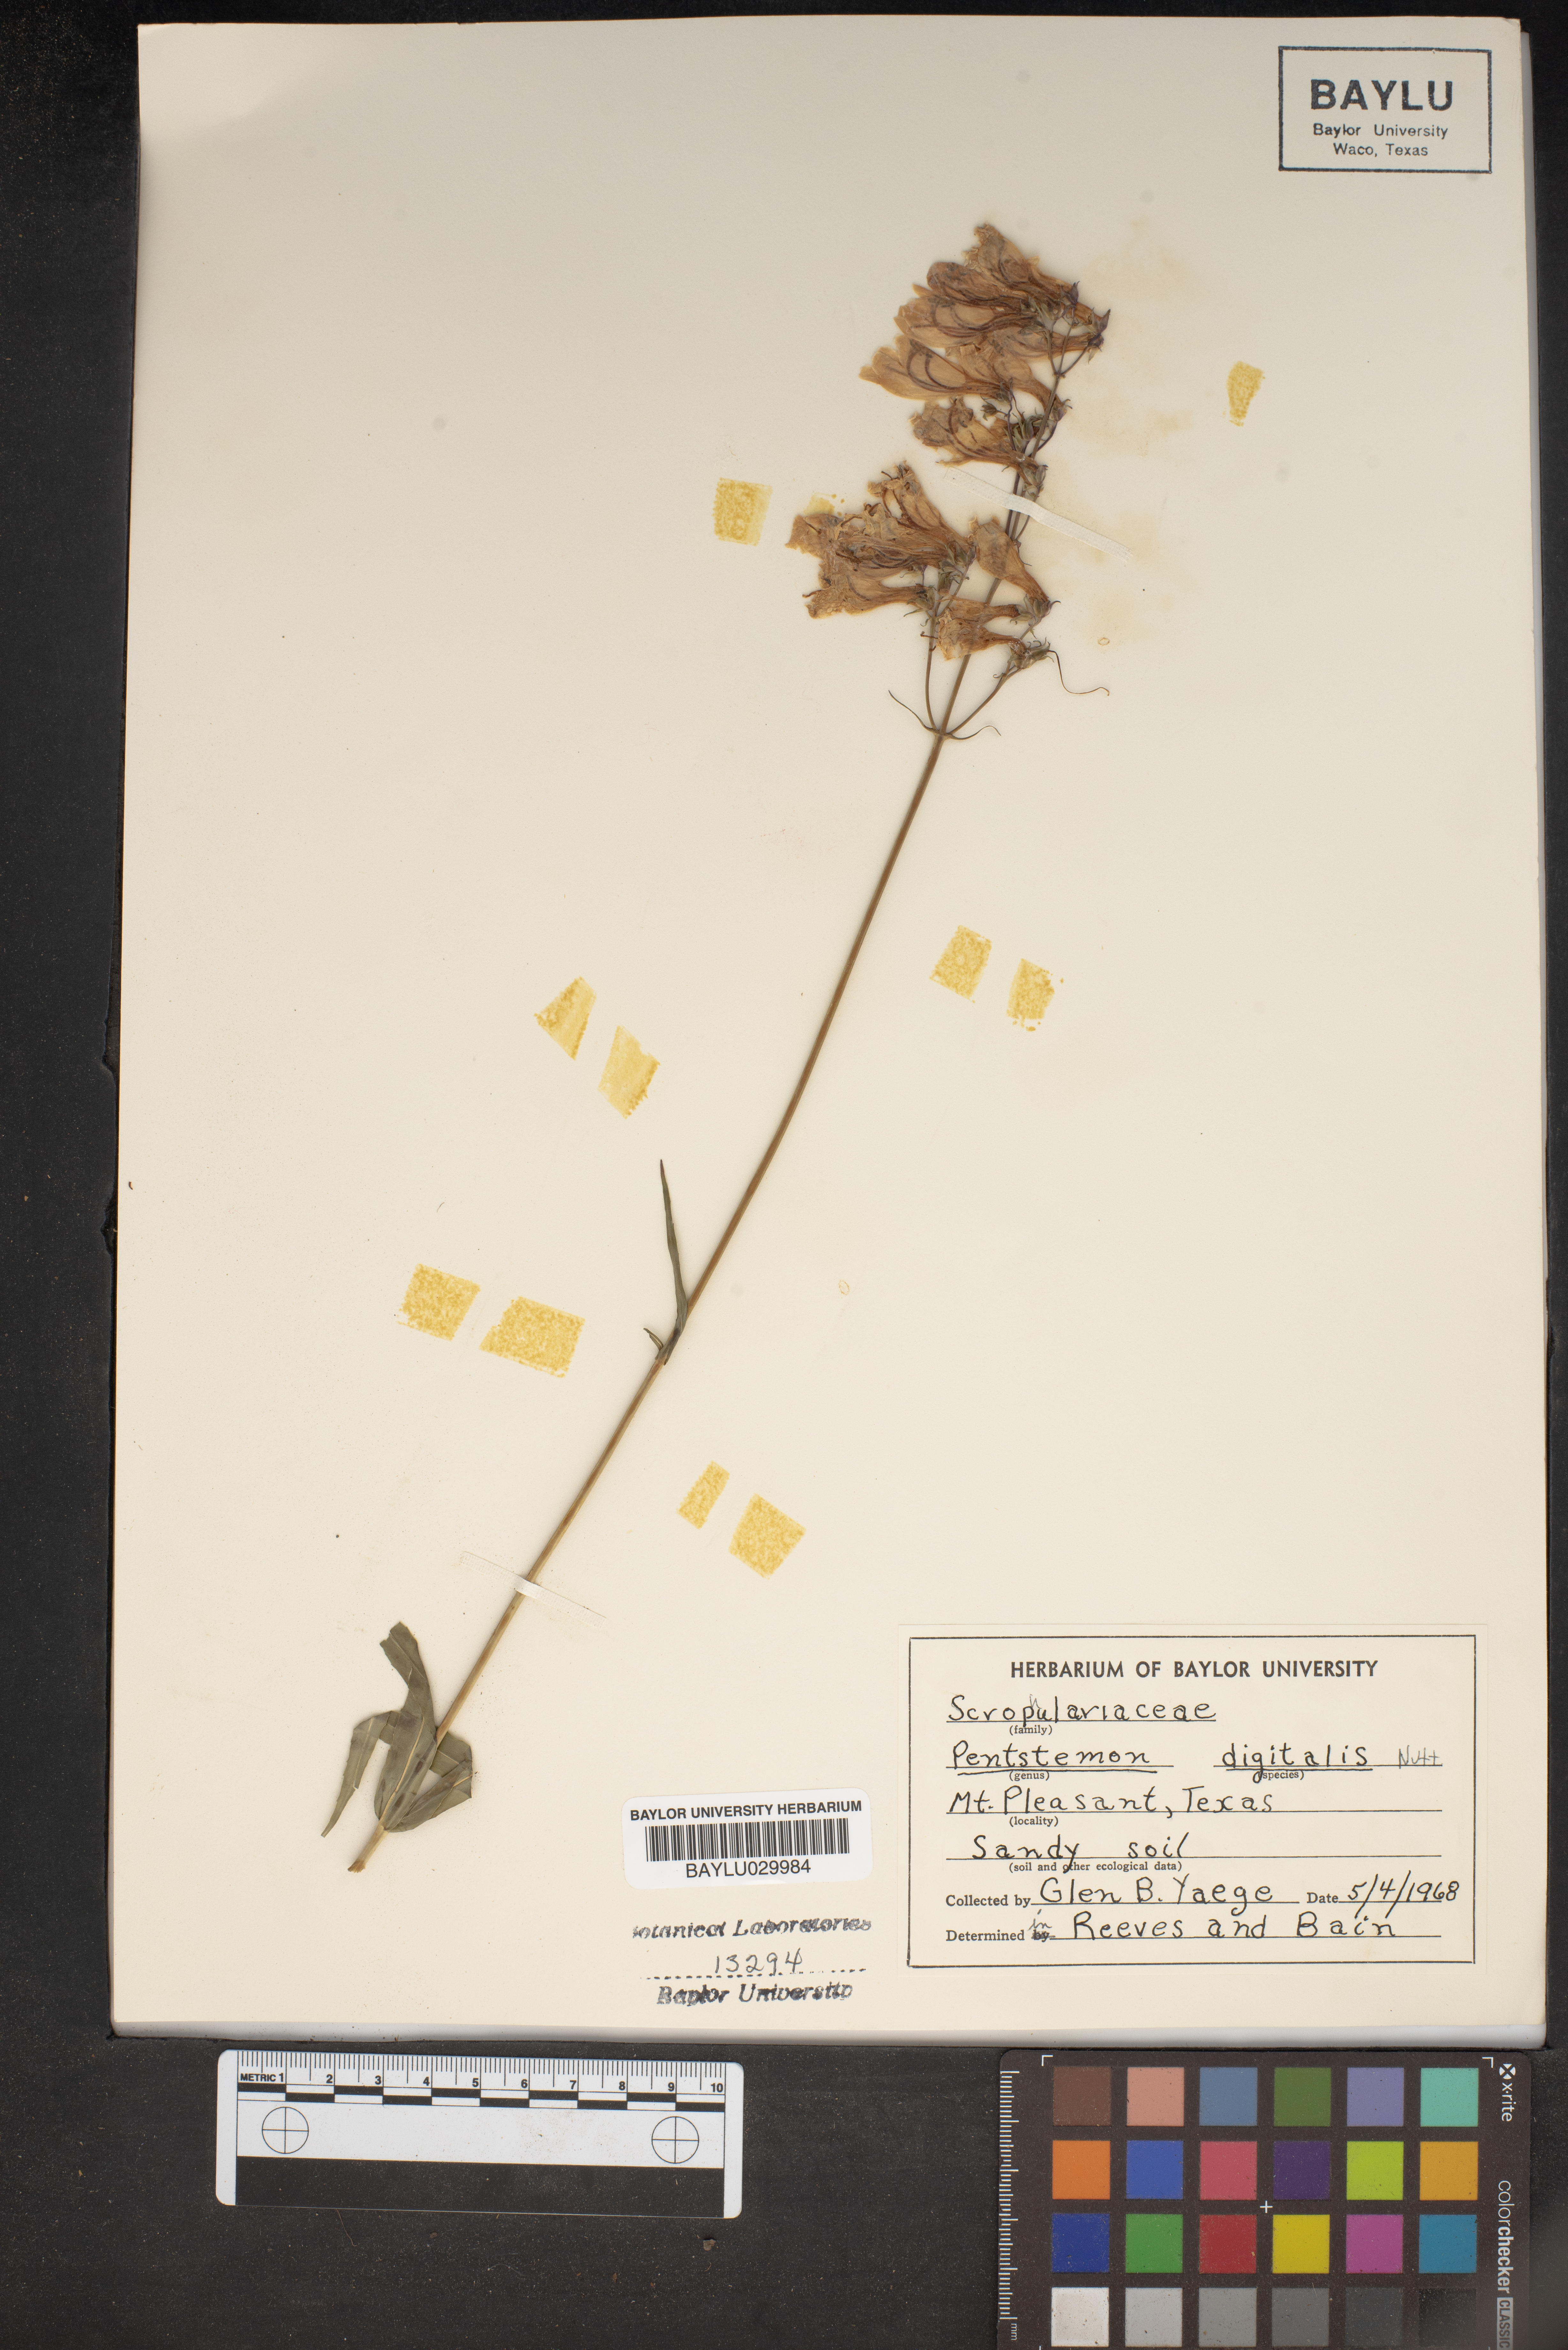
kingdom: Plantae
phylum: Tracheophyta
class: Magnoliopsida
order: Lamiales
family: Plantaginaceae
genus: Penstemon
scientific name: Penstemon digitalis
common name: Foxglove beardtongue
